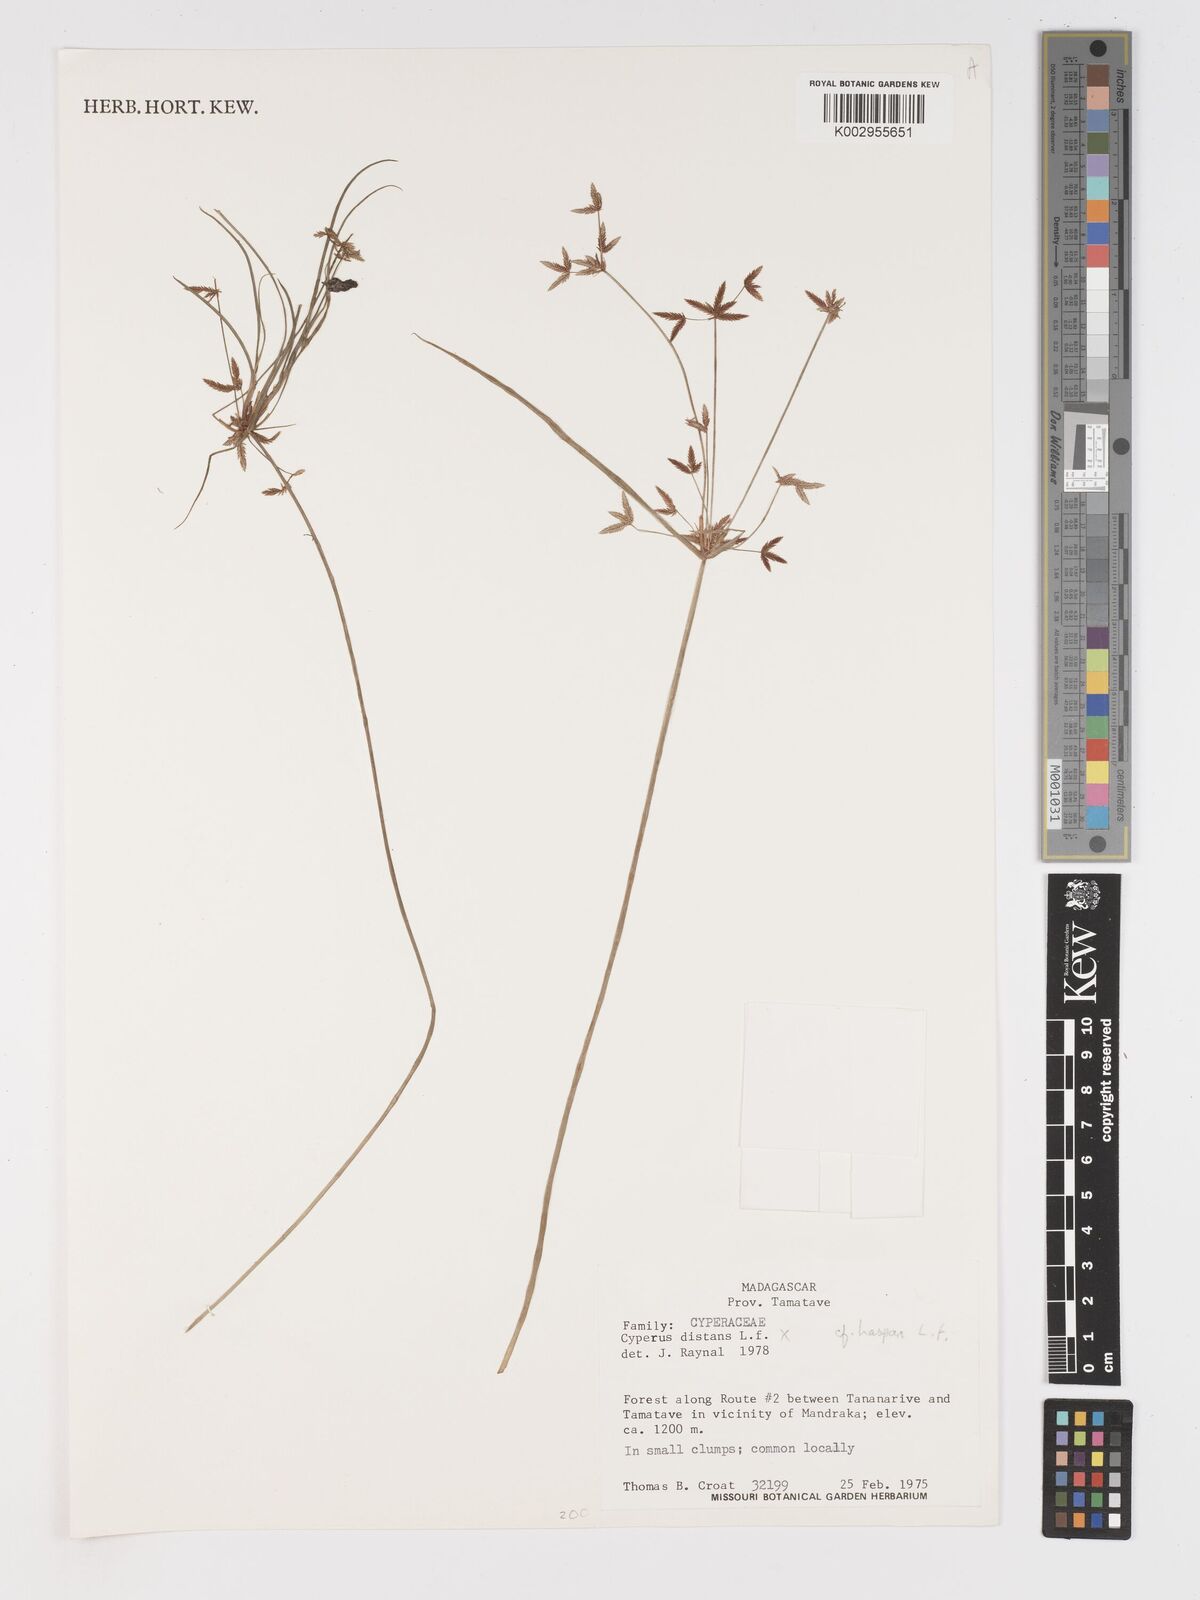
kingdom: Plantae
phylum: Tracheophyta
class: Liliopsida
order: Poales
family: Cyperaceae
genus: Cyperus
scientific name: Cyperus haspan
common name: Haspan flatsedge
